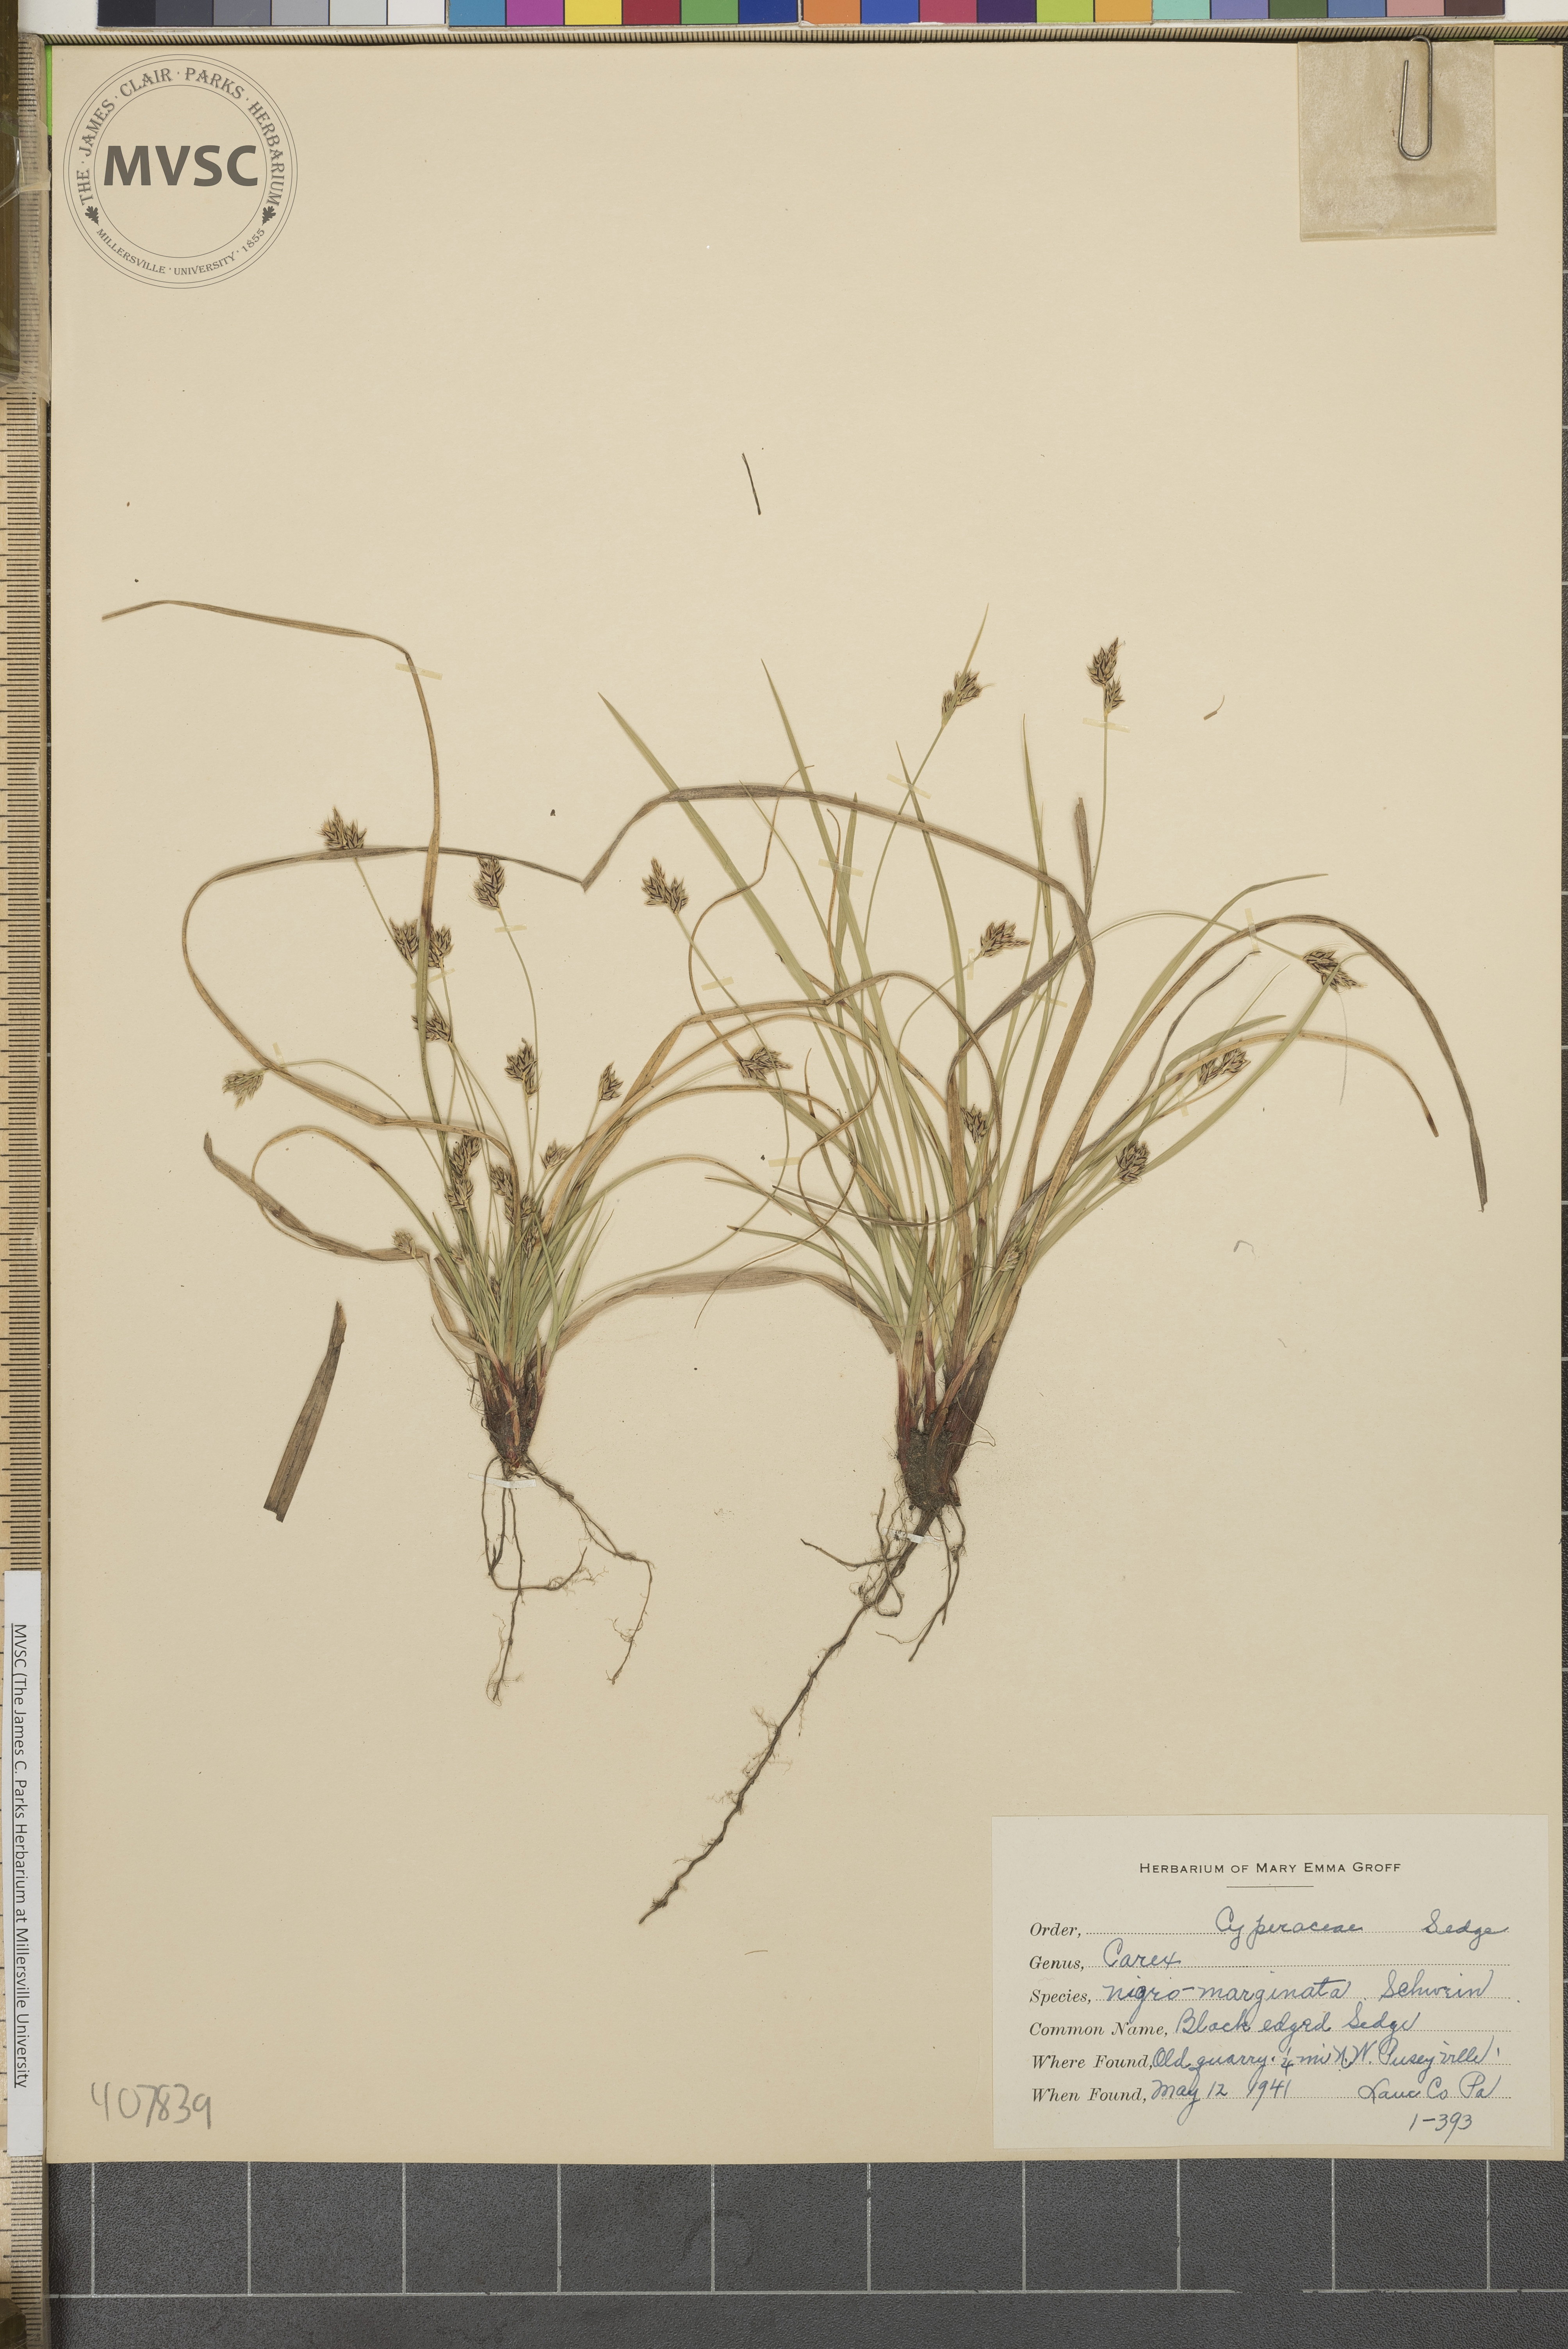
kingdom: Plantae
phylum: Tracheophyta
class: Liliopsida
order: Poales
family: Cyperaceae
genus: Carex
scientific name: Carex nigromarginata
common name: Black-edged sedge
